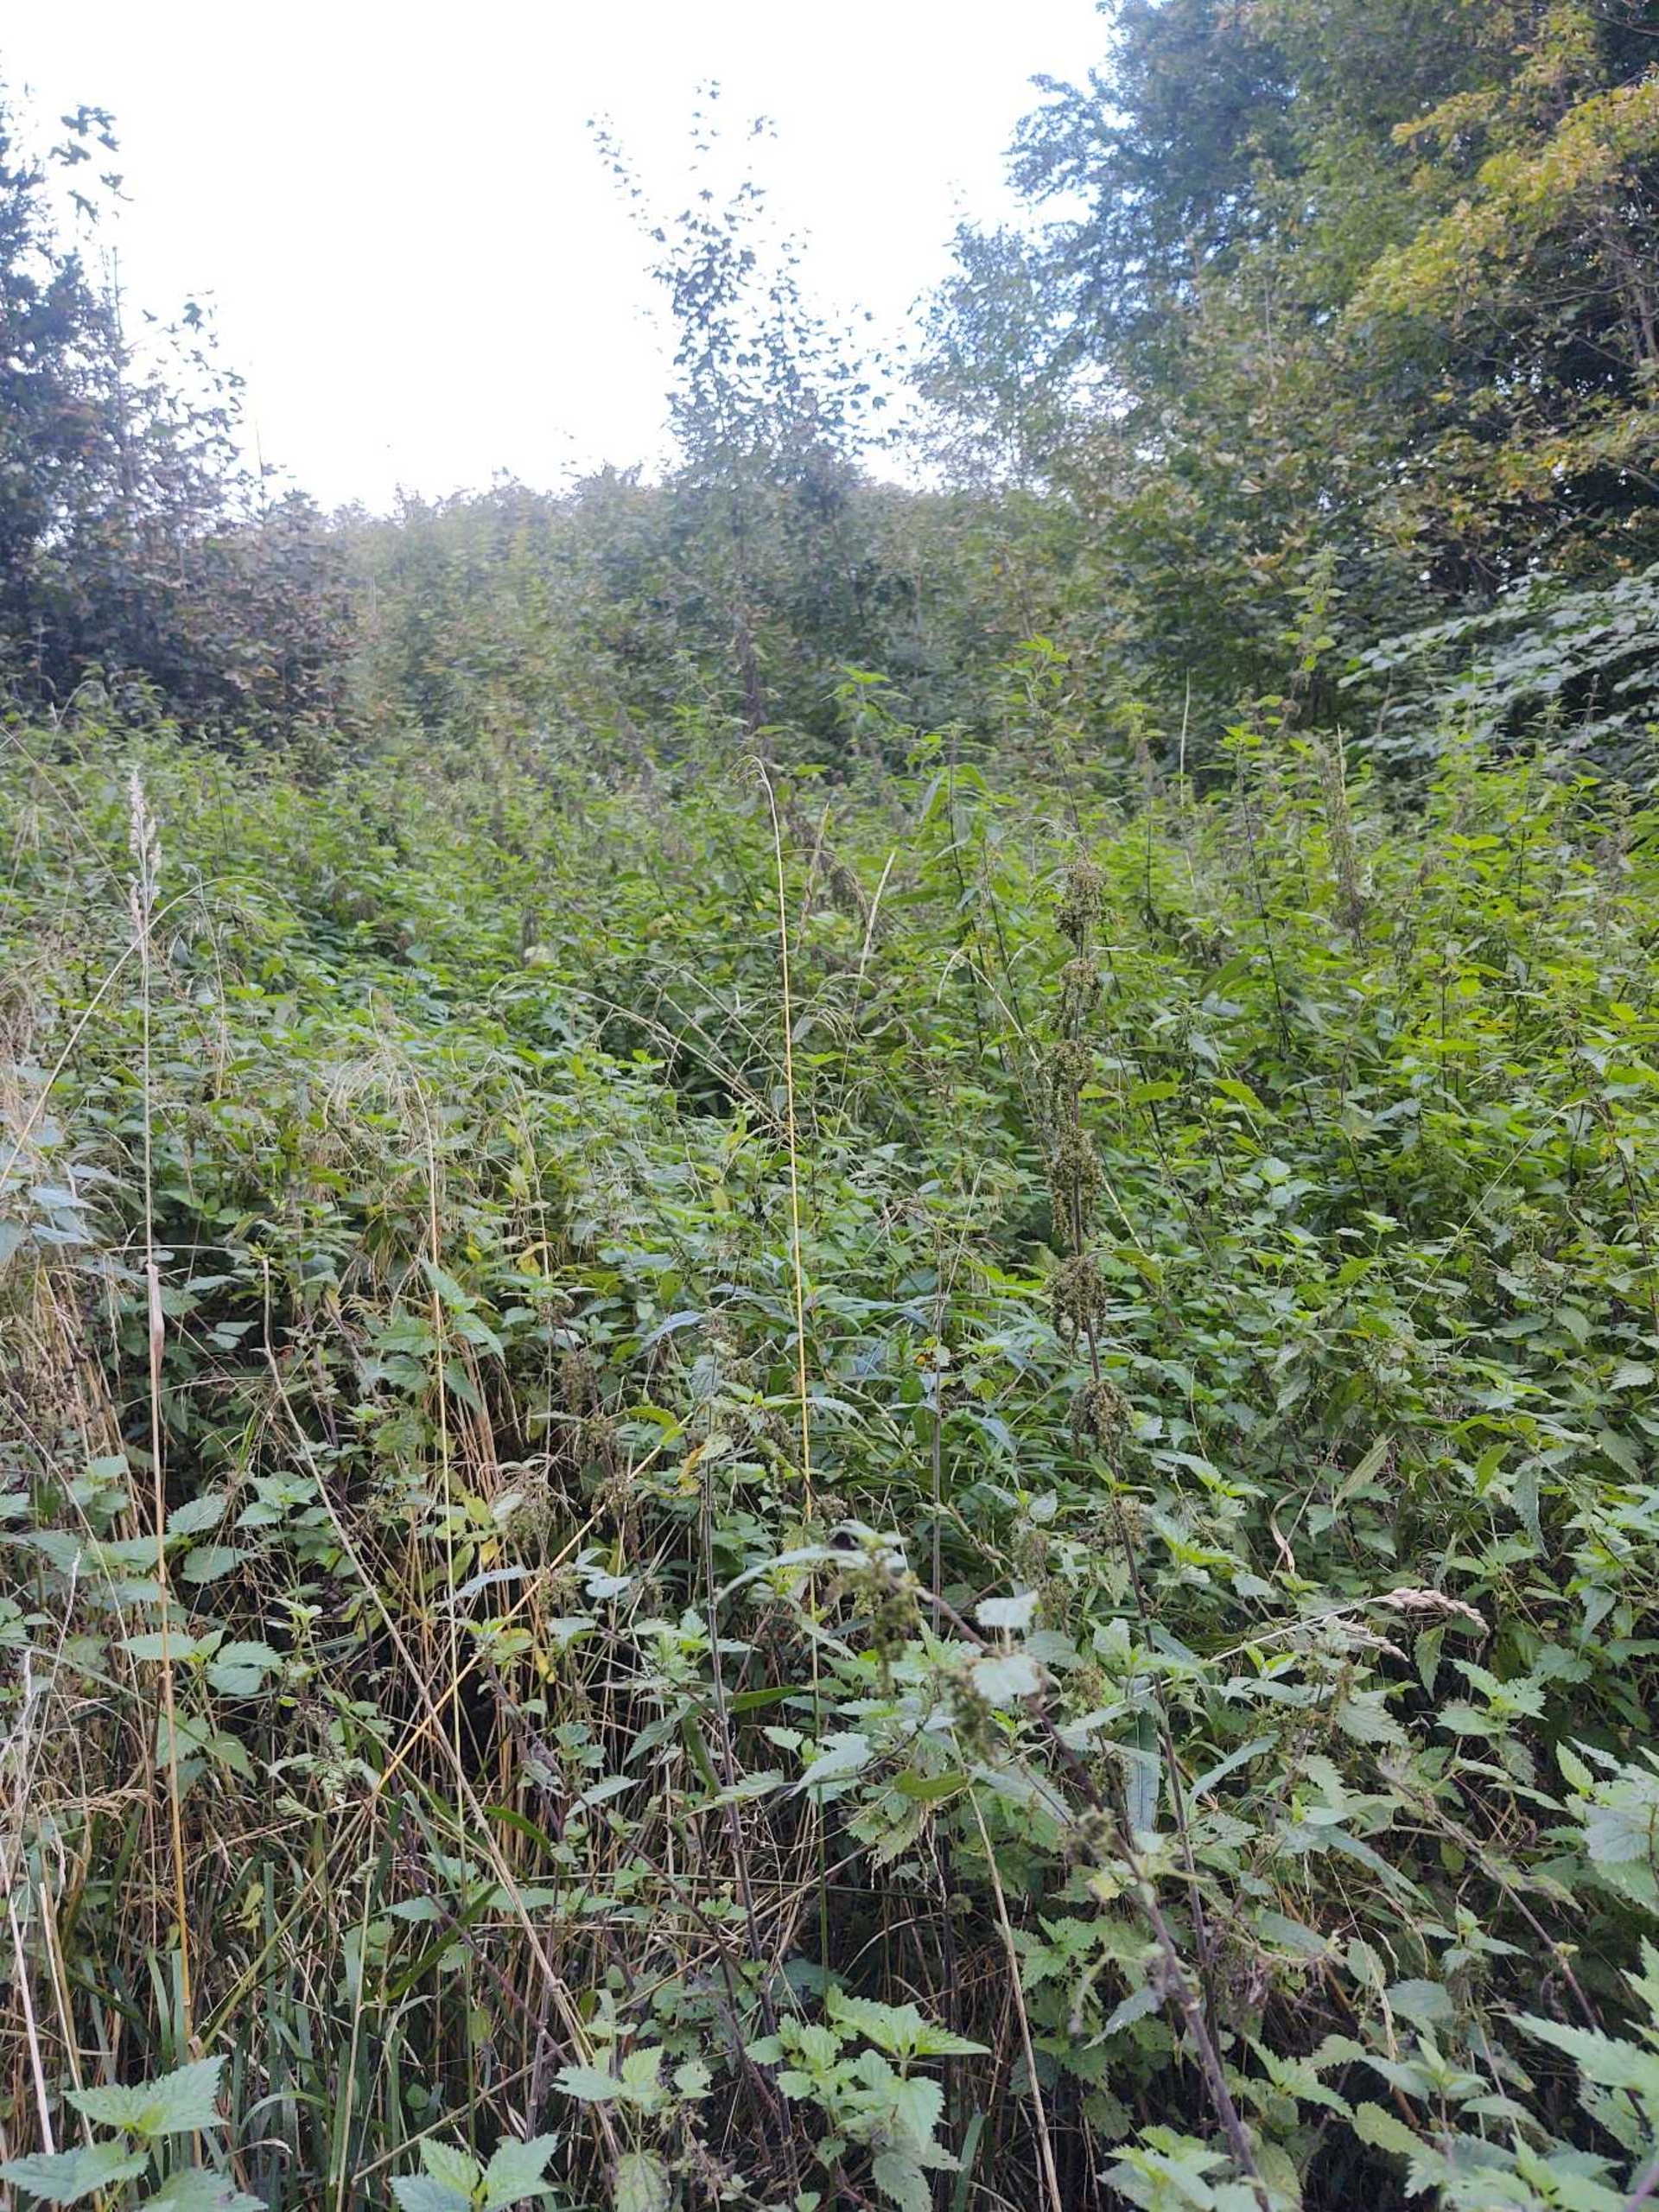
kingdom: Plantae
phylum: Tracheophyta
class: Magnoliopsida
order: Rosales
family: Urticaceae
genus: Urtica
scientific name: Urtica dioica
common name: Stor nælde
